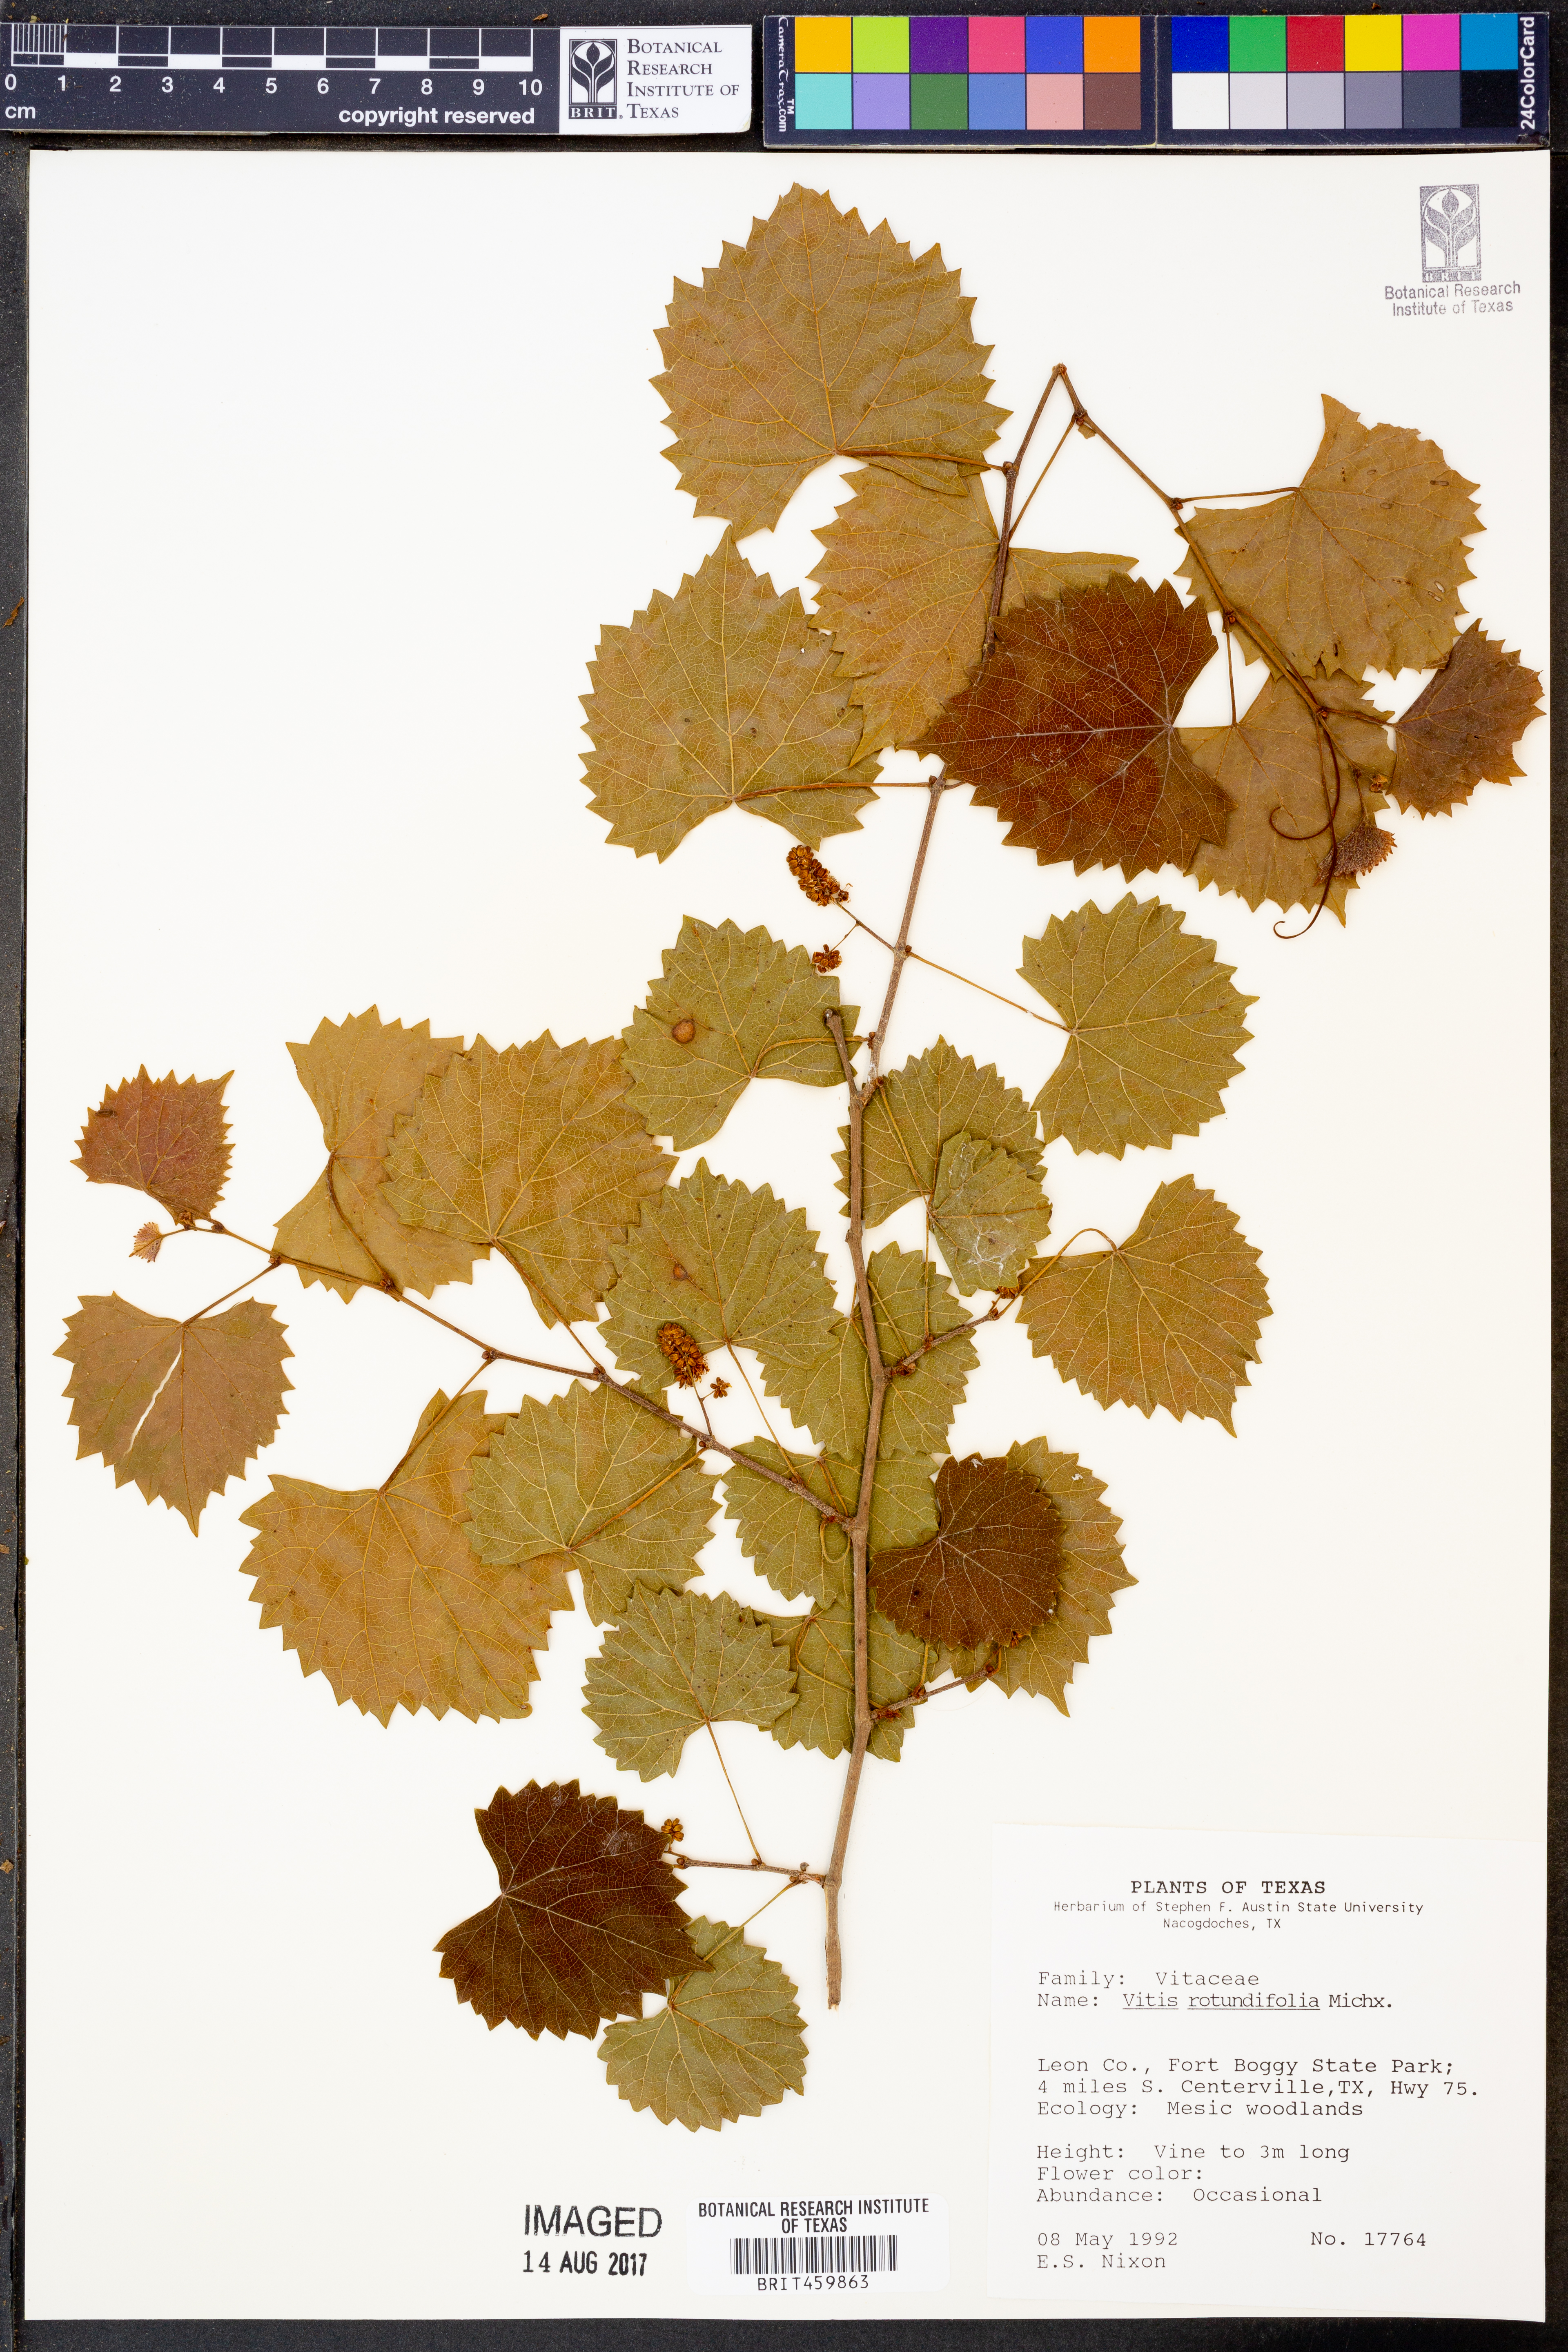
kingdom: Plantae
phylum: Tracheophyta
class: Magnoliopsida
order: Vitales
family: Vitaceae
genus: Vitis
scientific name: Vitis rotundifolia
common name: Muscadine grape
